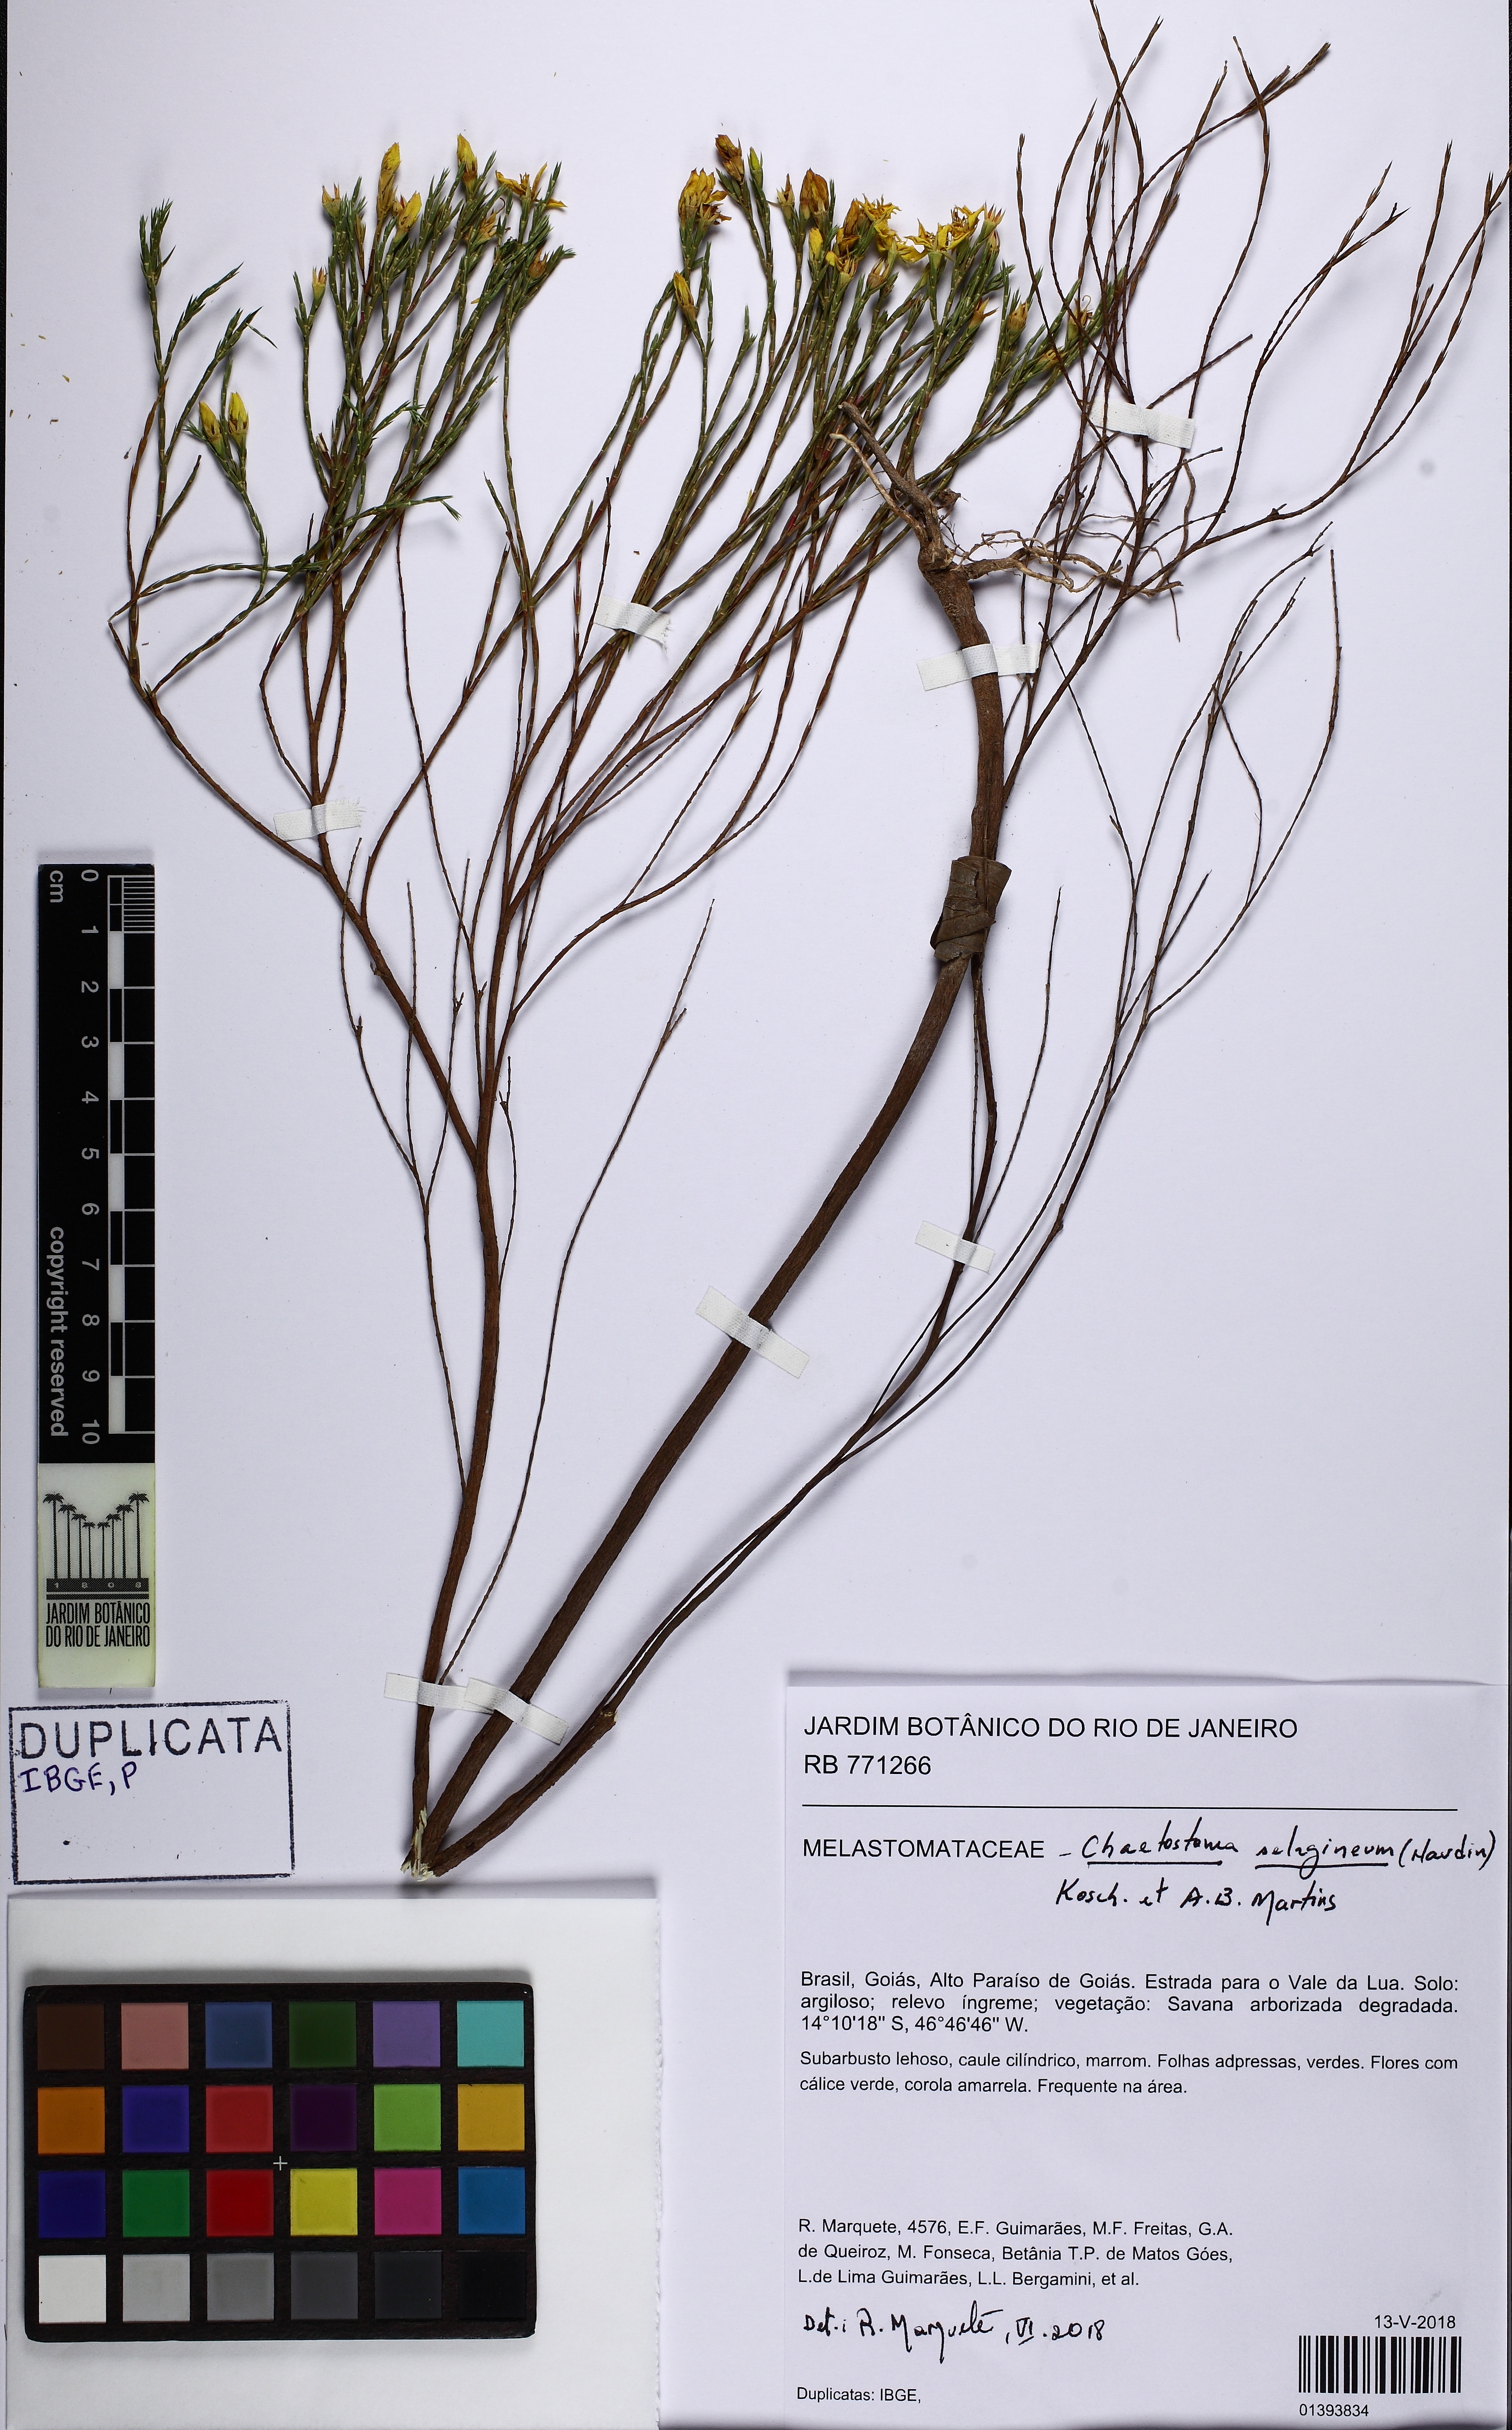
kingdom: Plantae
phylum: Tracheophyta
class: Magnoliopsida
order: Myrtales
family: Melastomataceae
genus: Microlicia
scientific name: Microlicia flavipetala
